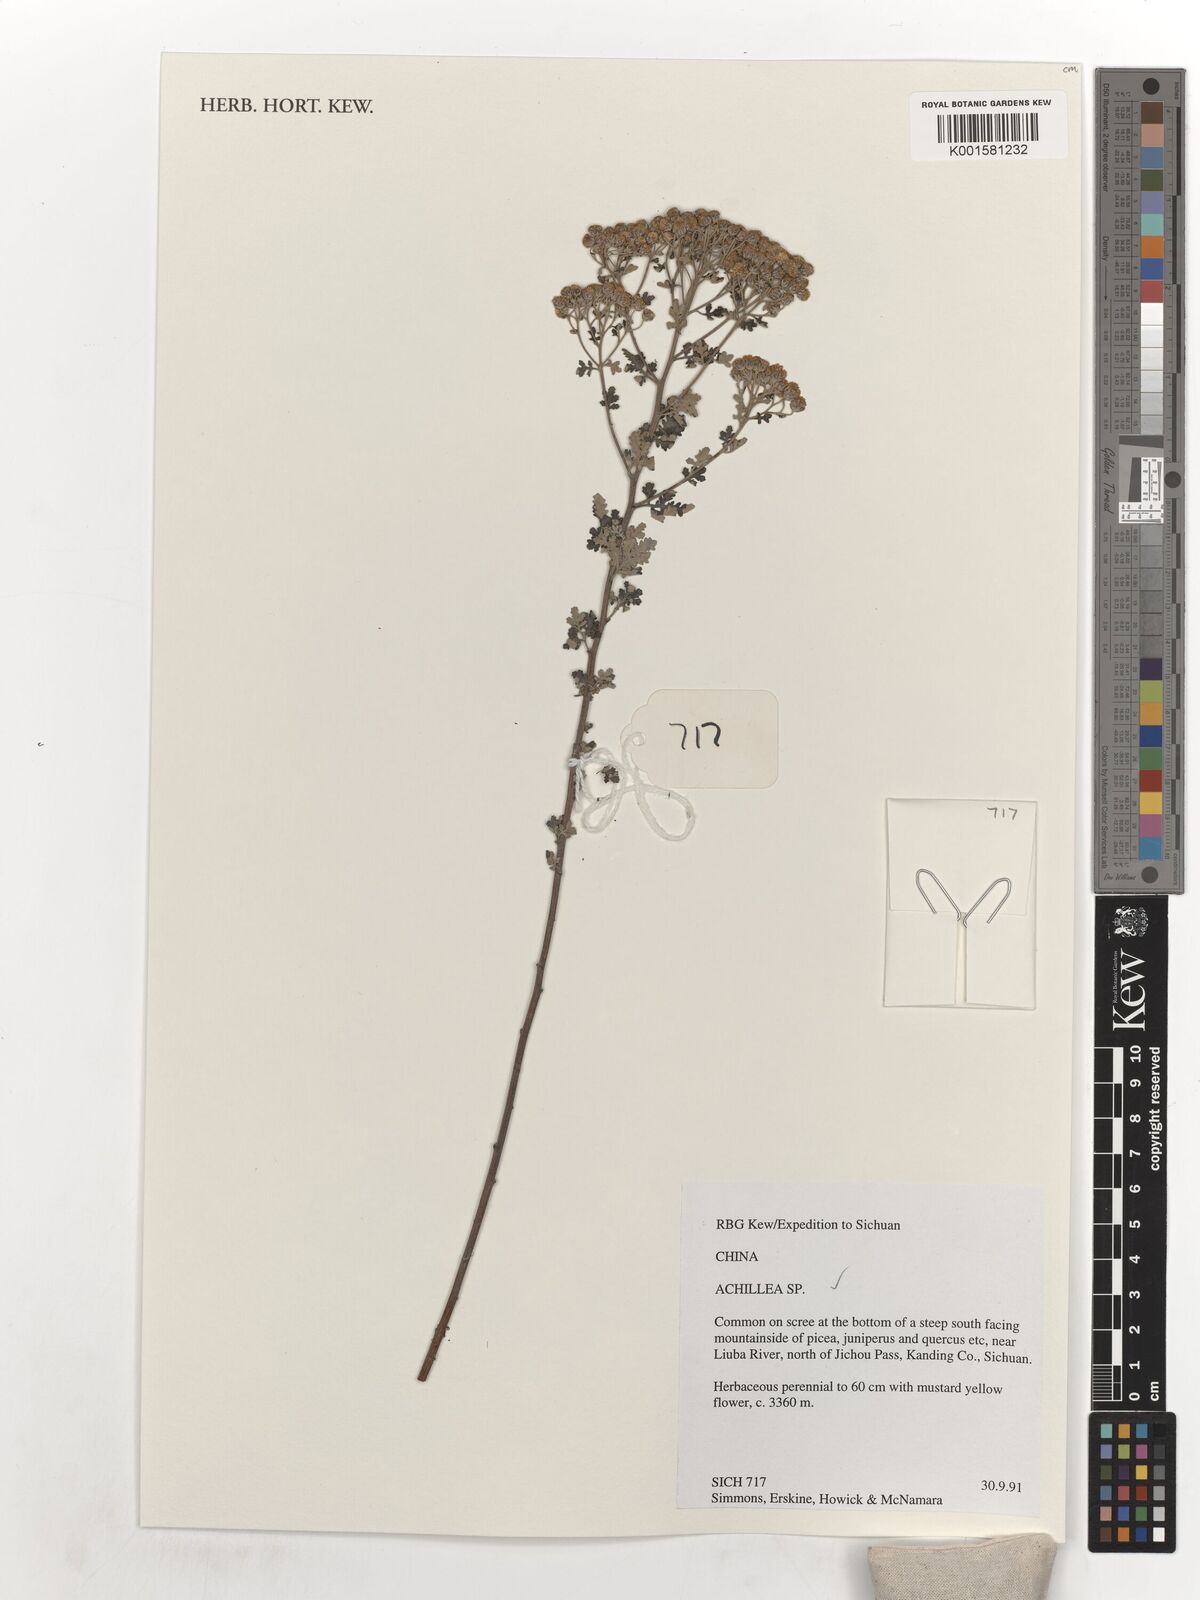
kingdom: Plantae
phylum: Tracheophyta
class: Magnoliopsida
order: Asterales
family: Asteraceae
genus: Achillea
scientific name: Achillea
